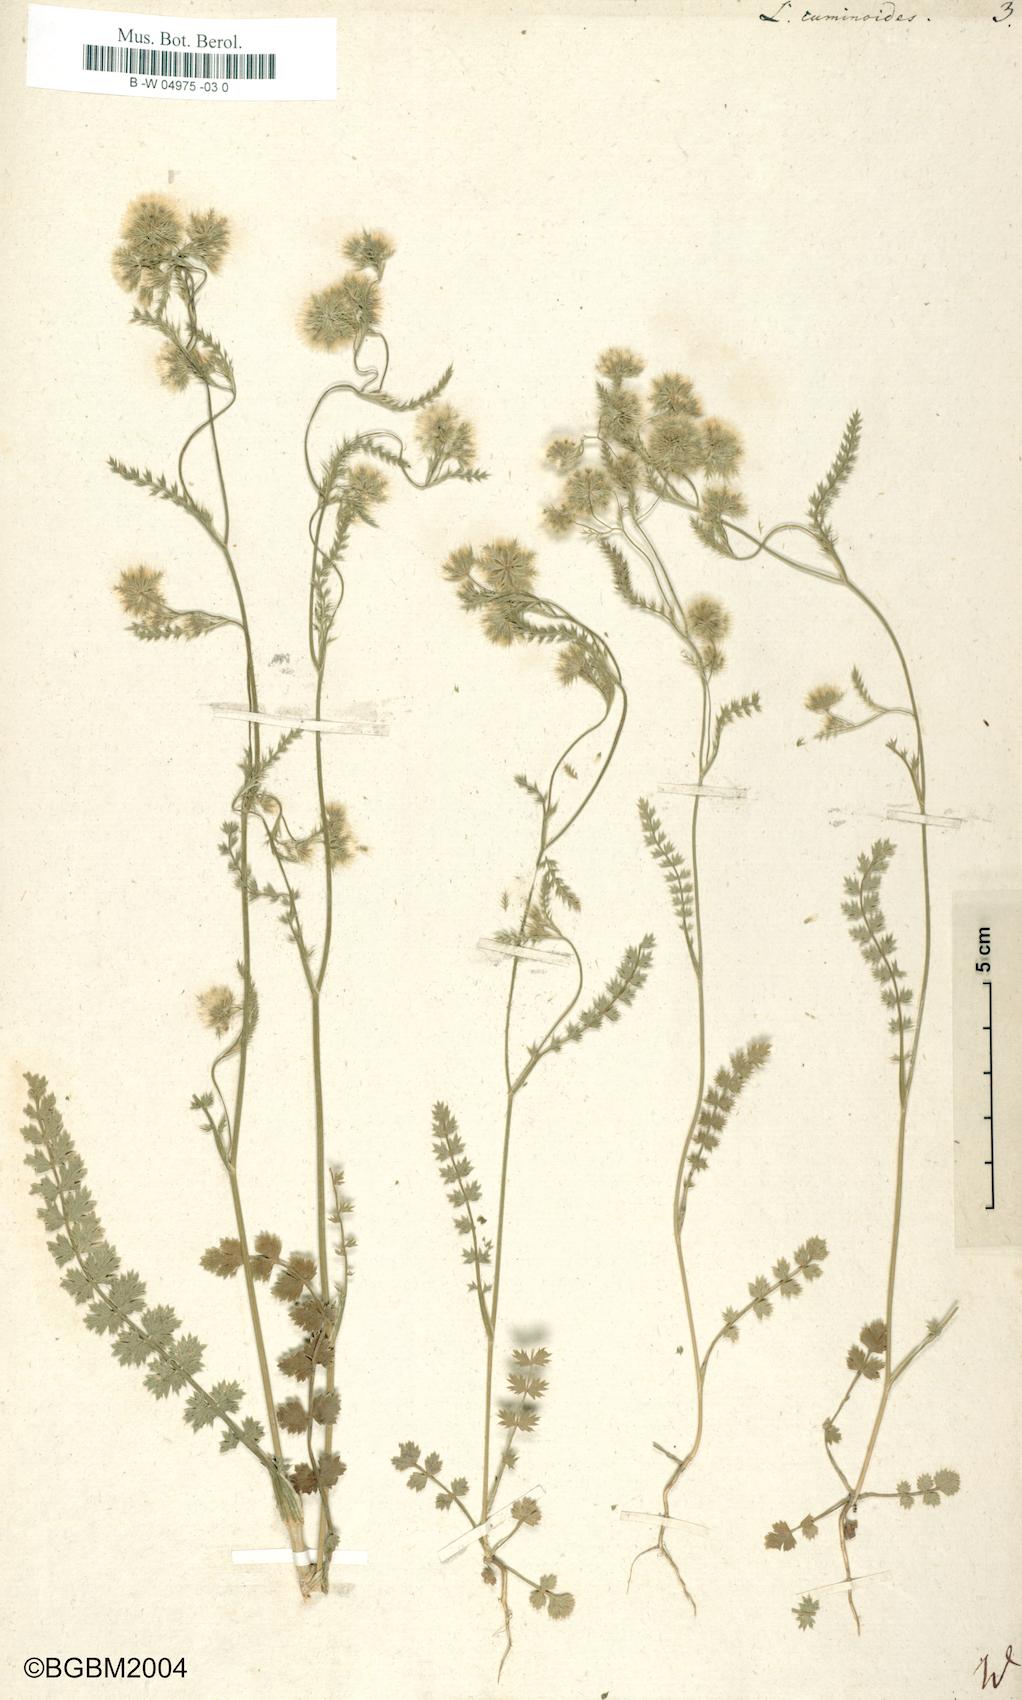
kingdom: Plantae
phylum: Tracheophyta
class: Magnoliopsida
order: Apiales
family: Apiaceae
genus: Lagoecia
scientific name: Lagoecia cuminoides
